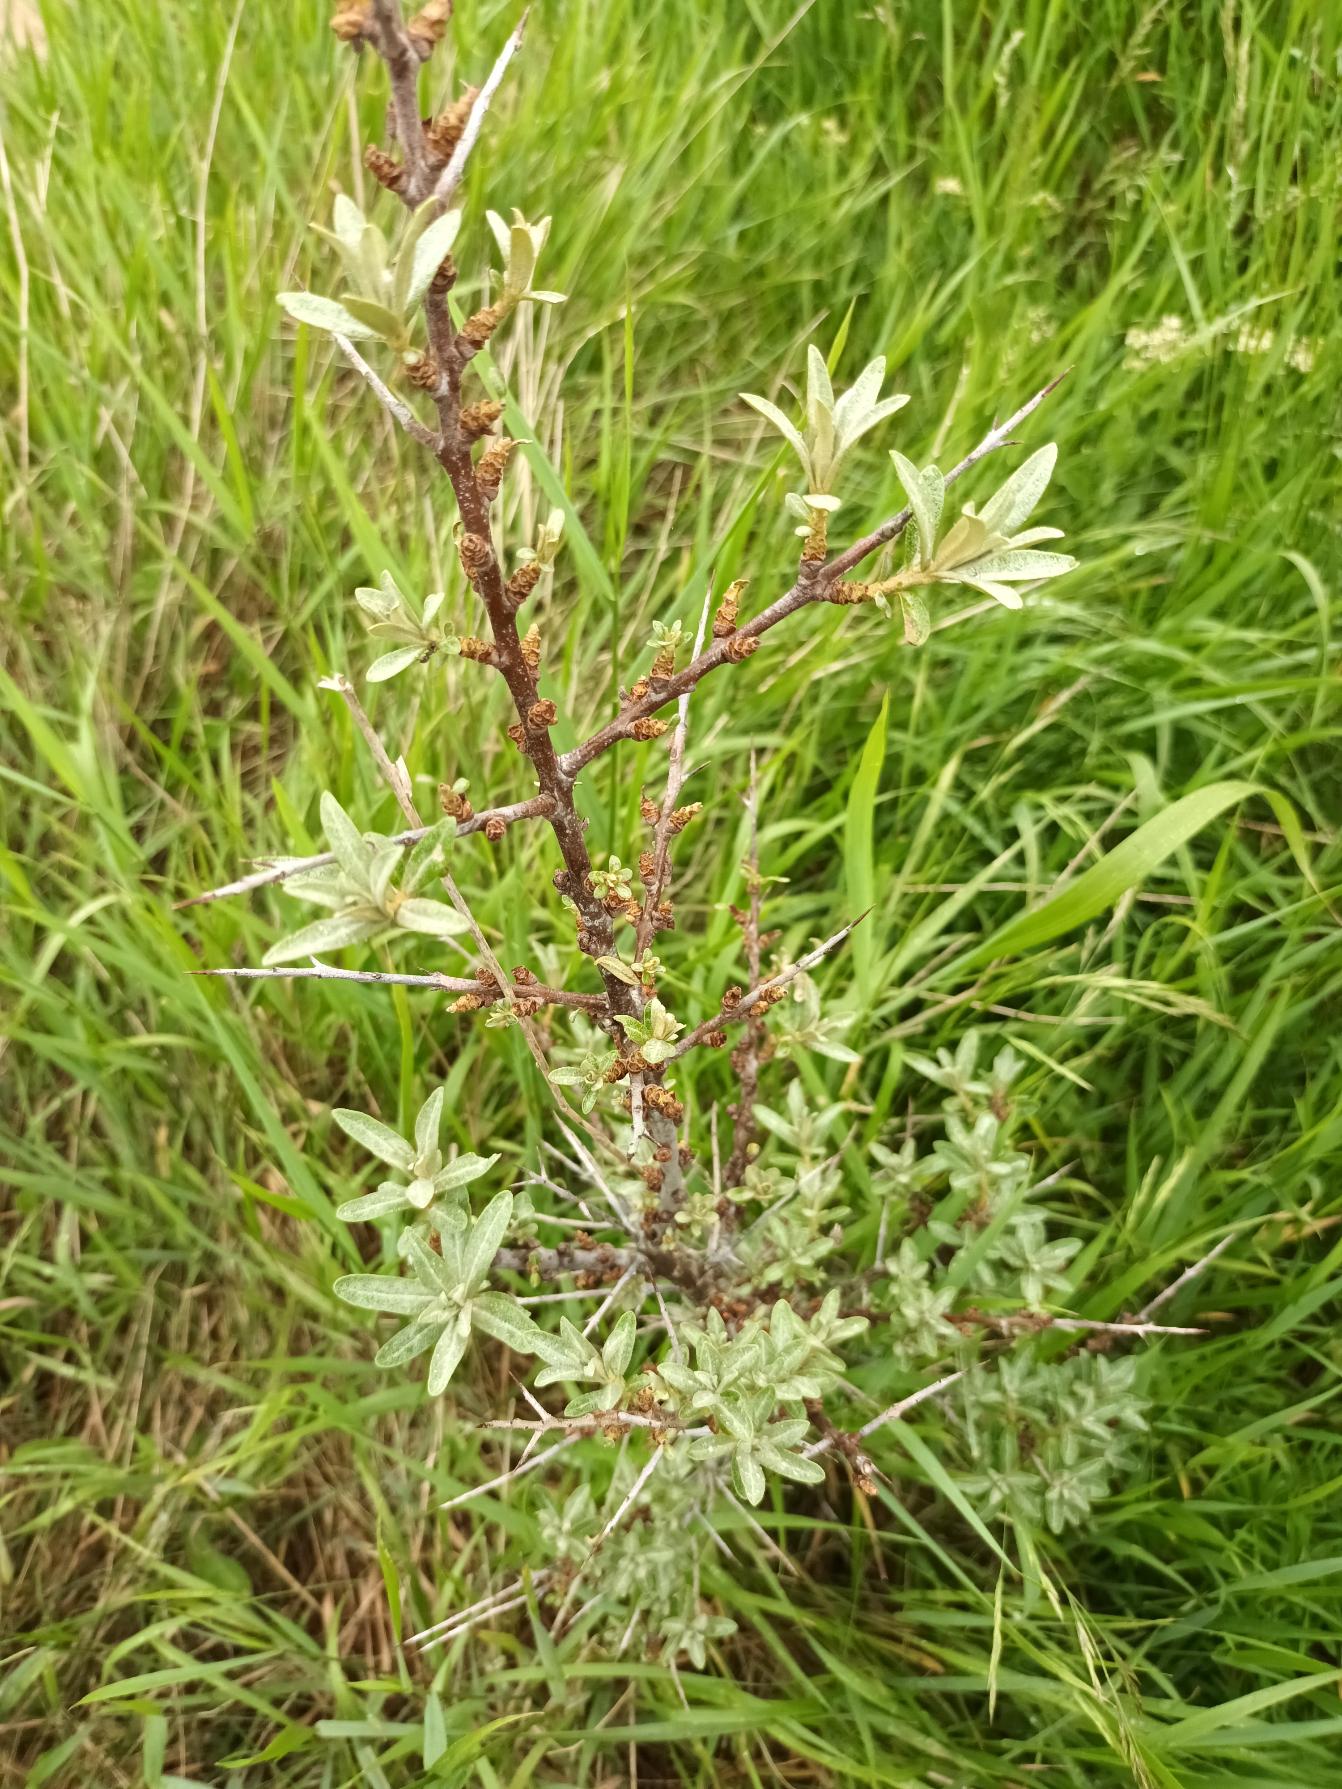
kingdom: Plantae
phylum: Tracheophyta
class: Magnoliopsida
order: Rosales
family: Elaeagnaceae
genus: Hippophae
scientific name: Hippophae rhamnoides
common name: Havtorn
